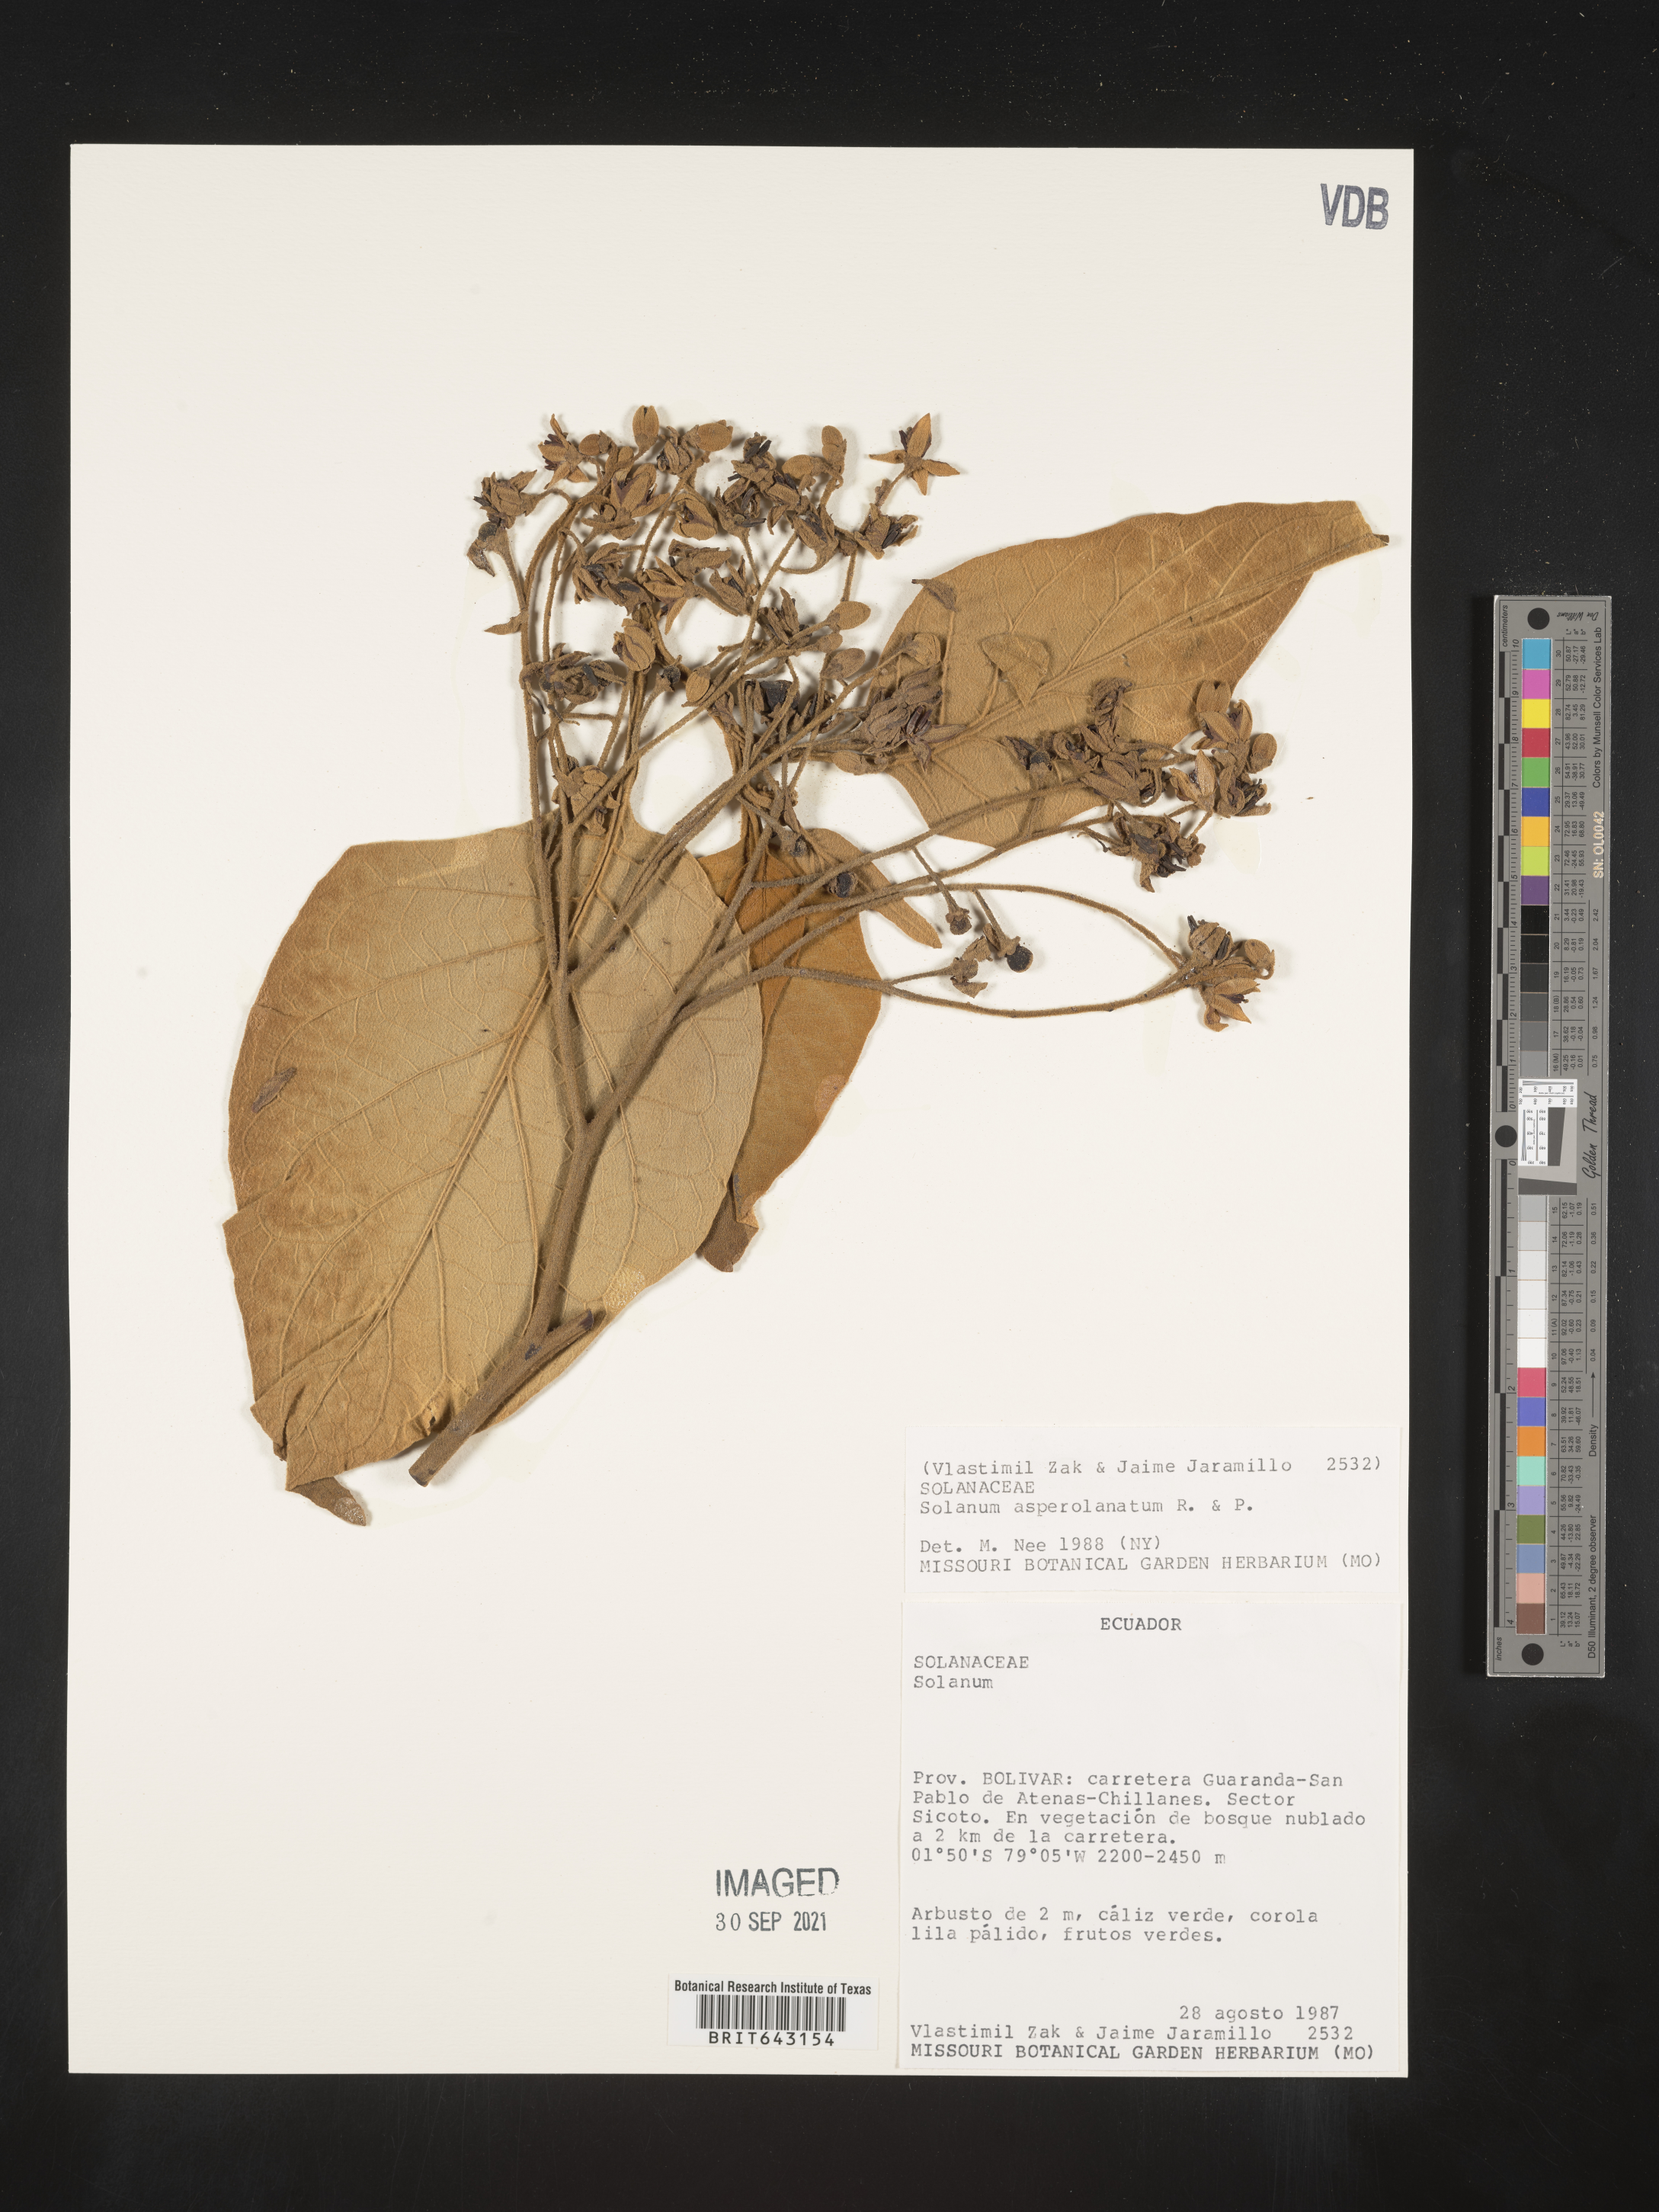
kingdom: Plantae
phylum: Tracheophyta
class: Magnoliopsida
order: Solanales
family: Solanaceae
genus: Solanum
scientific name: Solanum
